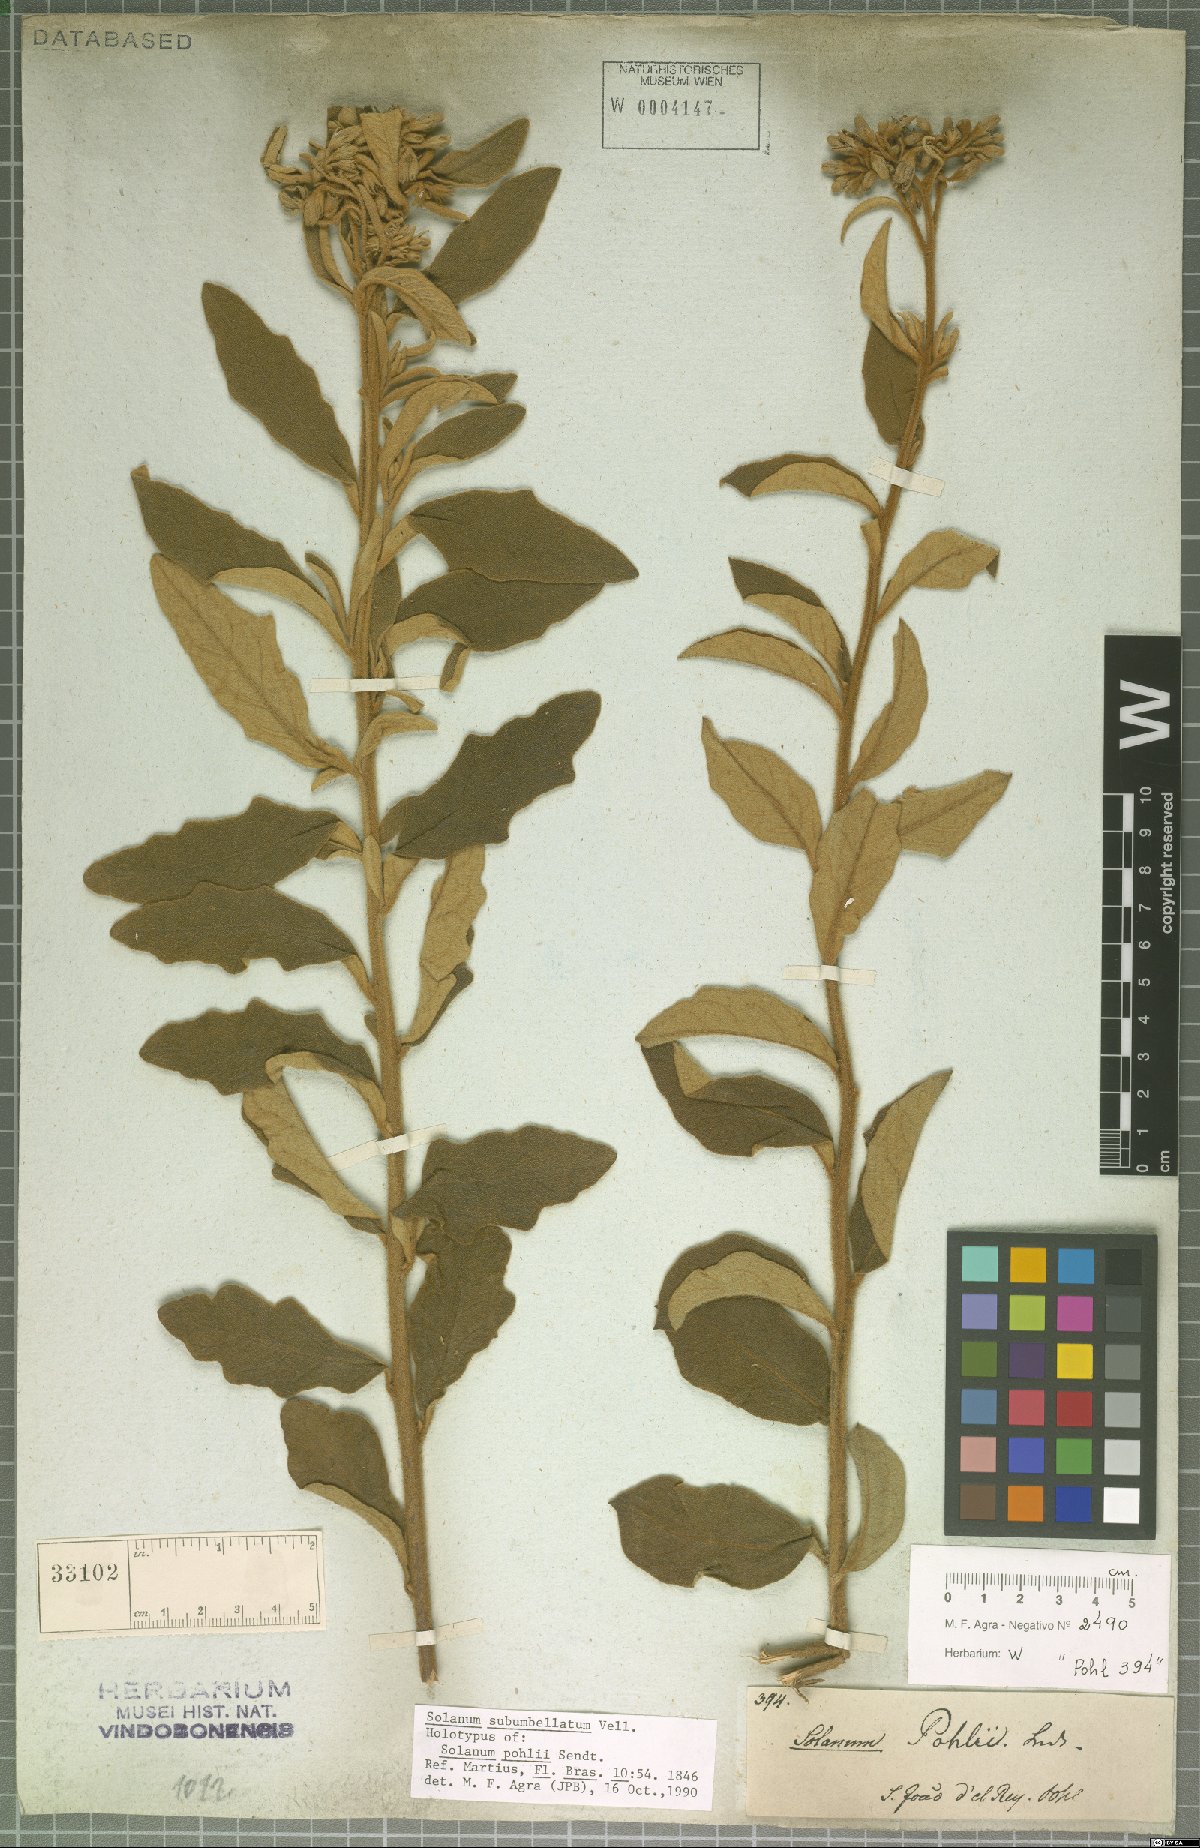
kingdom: Plantae
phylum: Tracheophyta
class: Magnoliopsida
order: Solanales
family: Solanaceae
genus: Solanum
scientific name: Solanum subumbellatum
